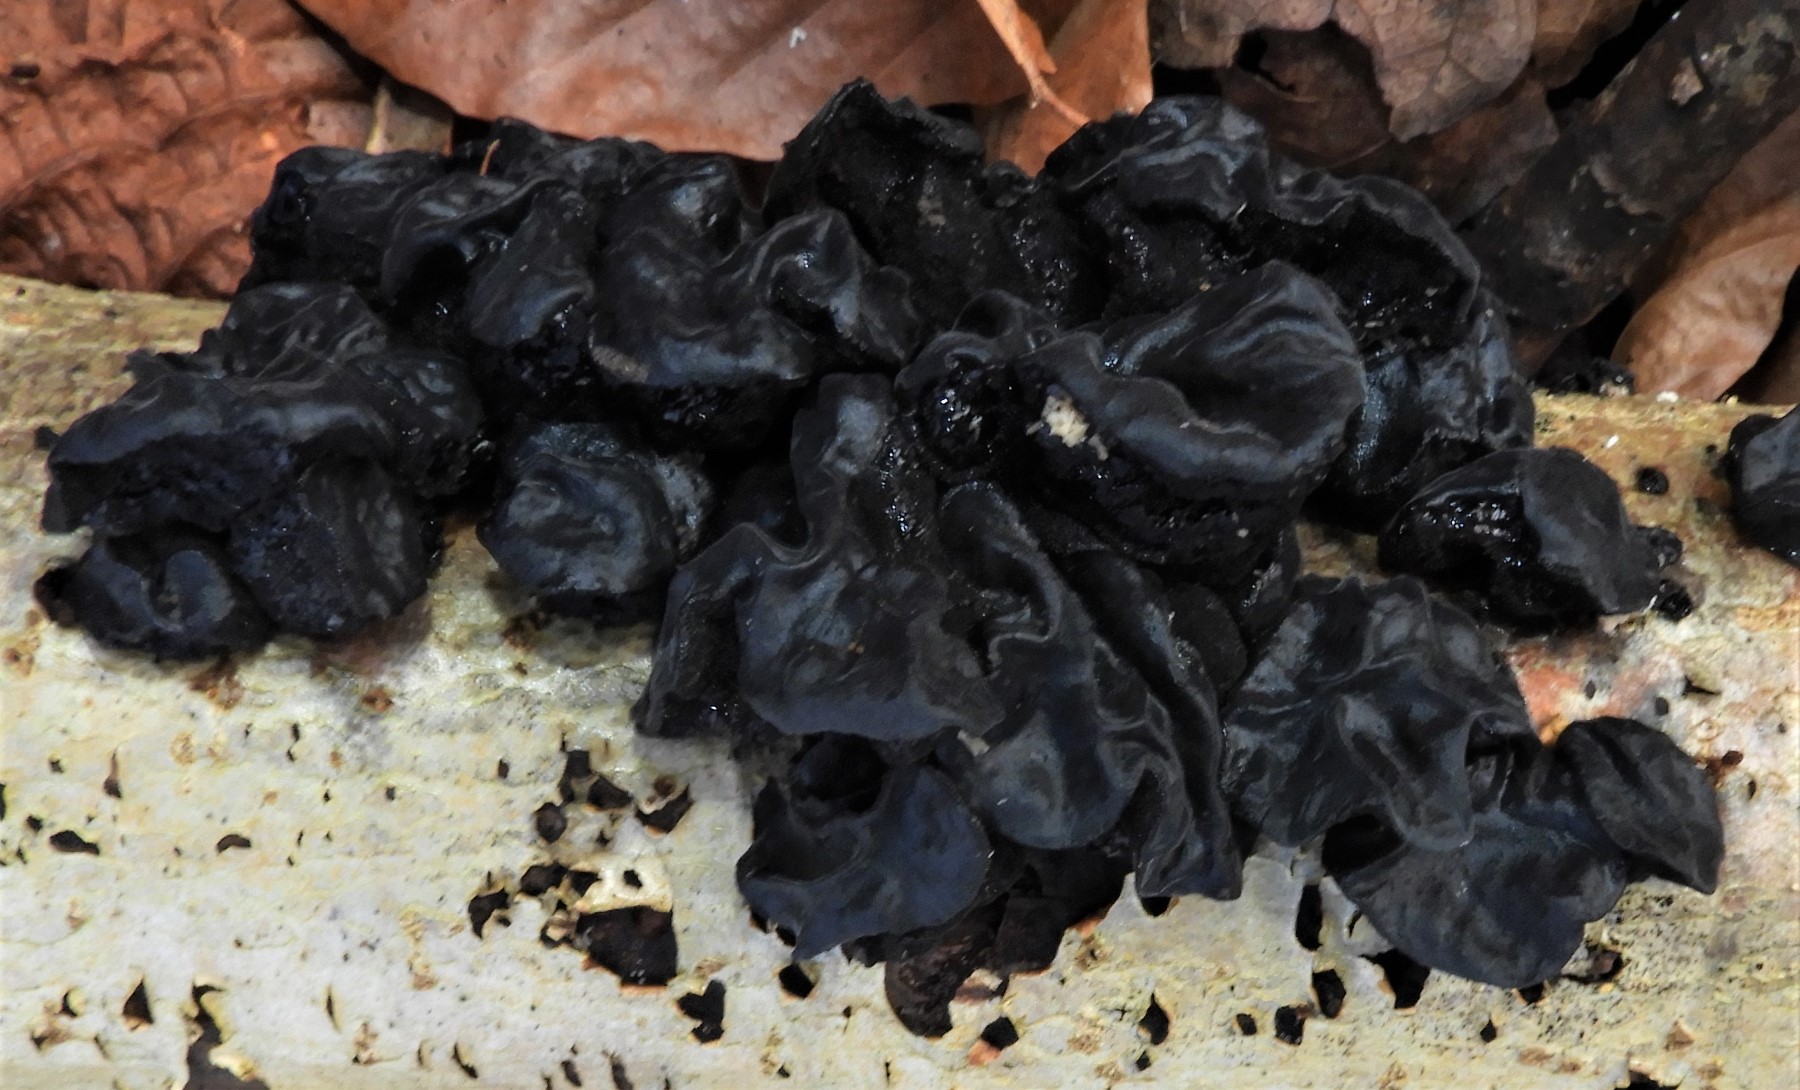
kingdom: Fungi
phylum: Basidiomycota
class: Agaricomycetes
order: Auriculariales
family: Auriculariaceae
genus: Exidia
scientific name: Exidia glandulosa
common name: ege-bævretop
